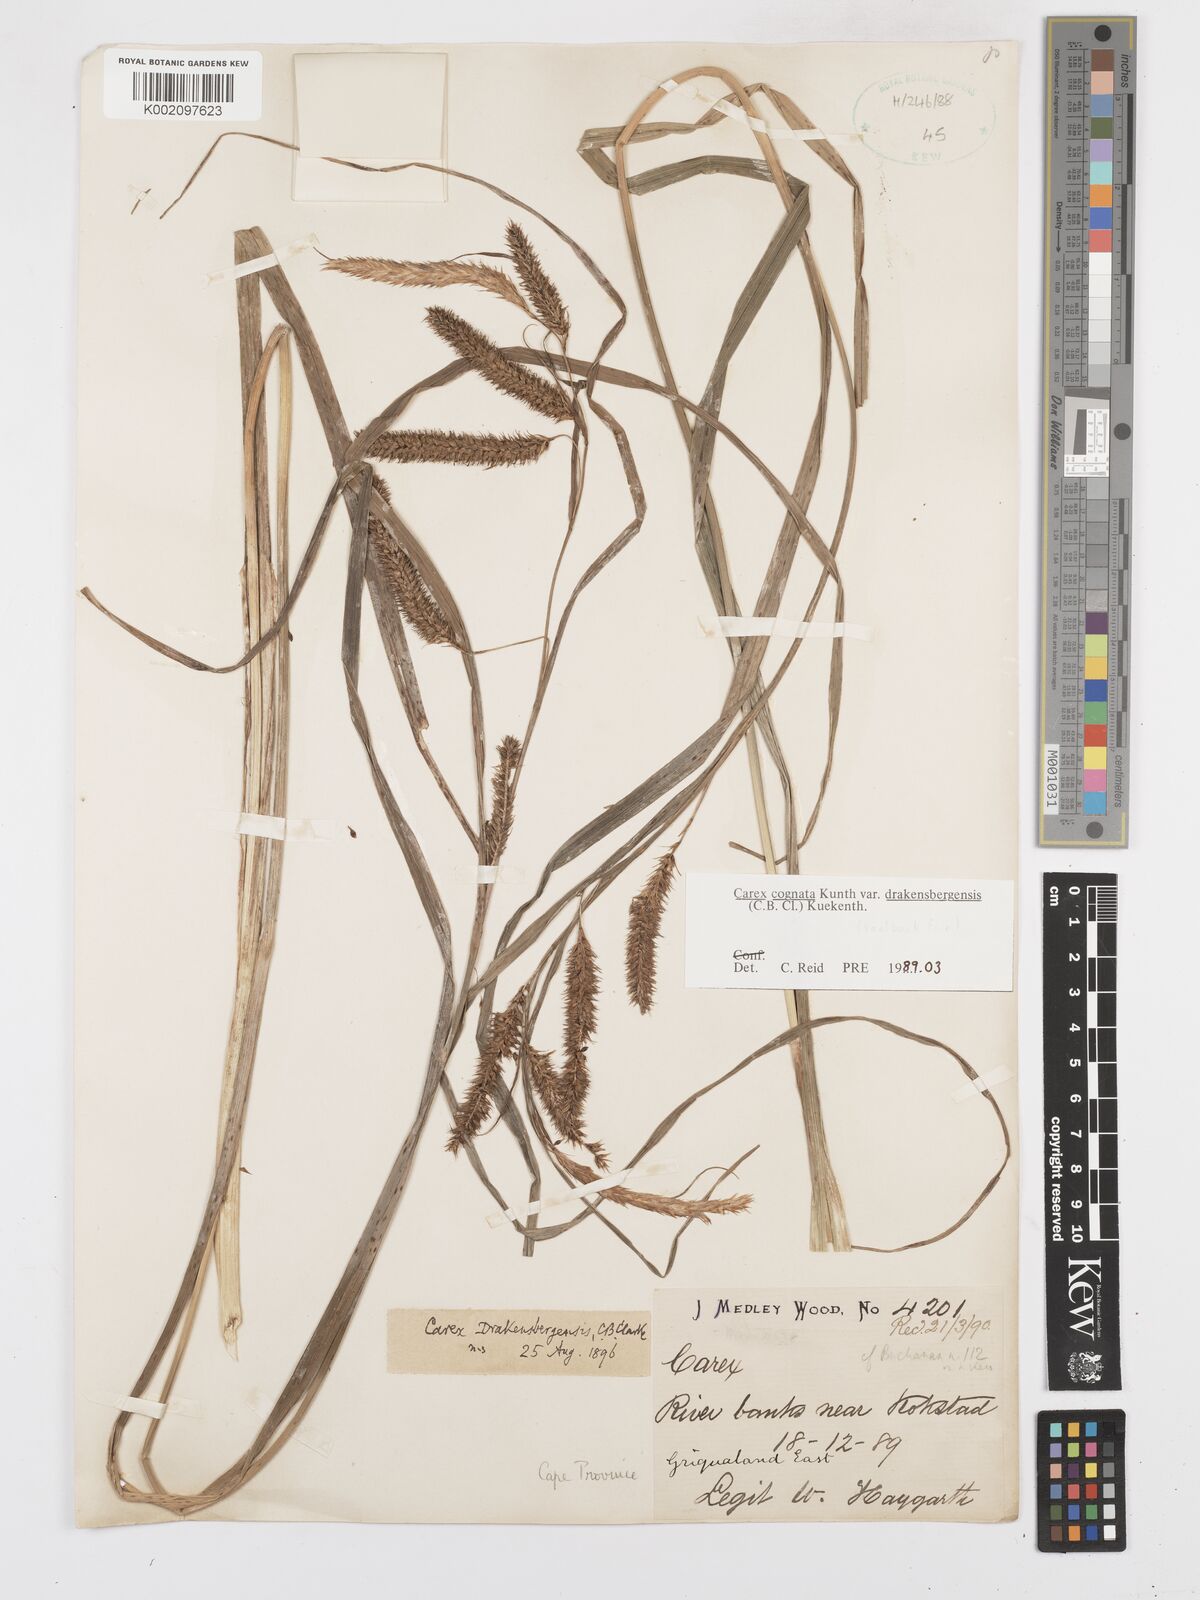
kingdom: Plantae
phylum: Tracheophyta
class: Liliopsida
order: Poales
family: Cyperaceae
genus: Carex
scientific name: Carex cognata
